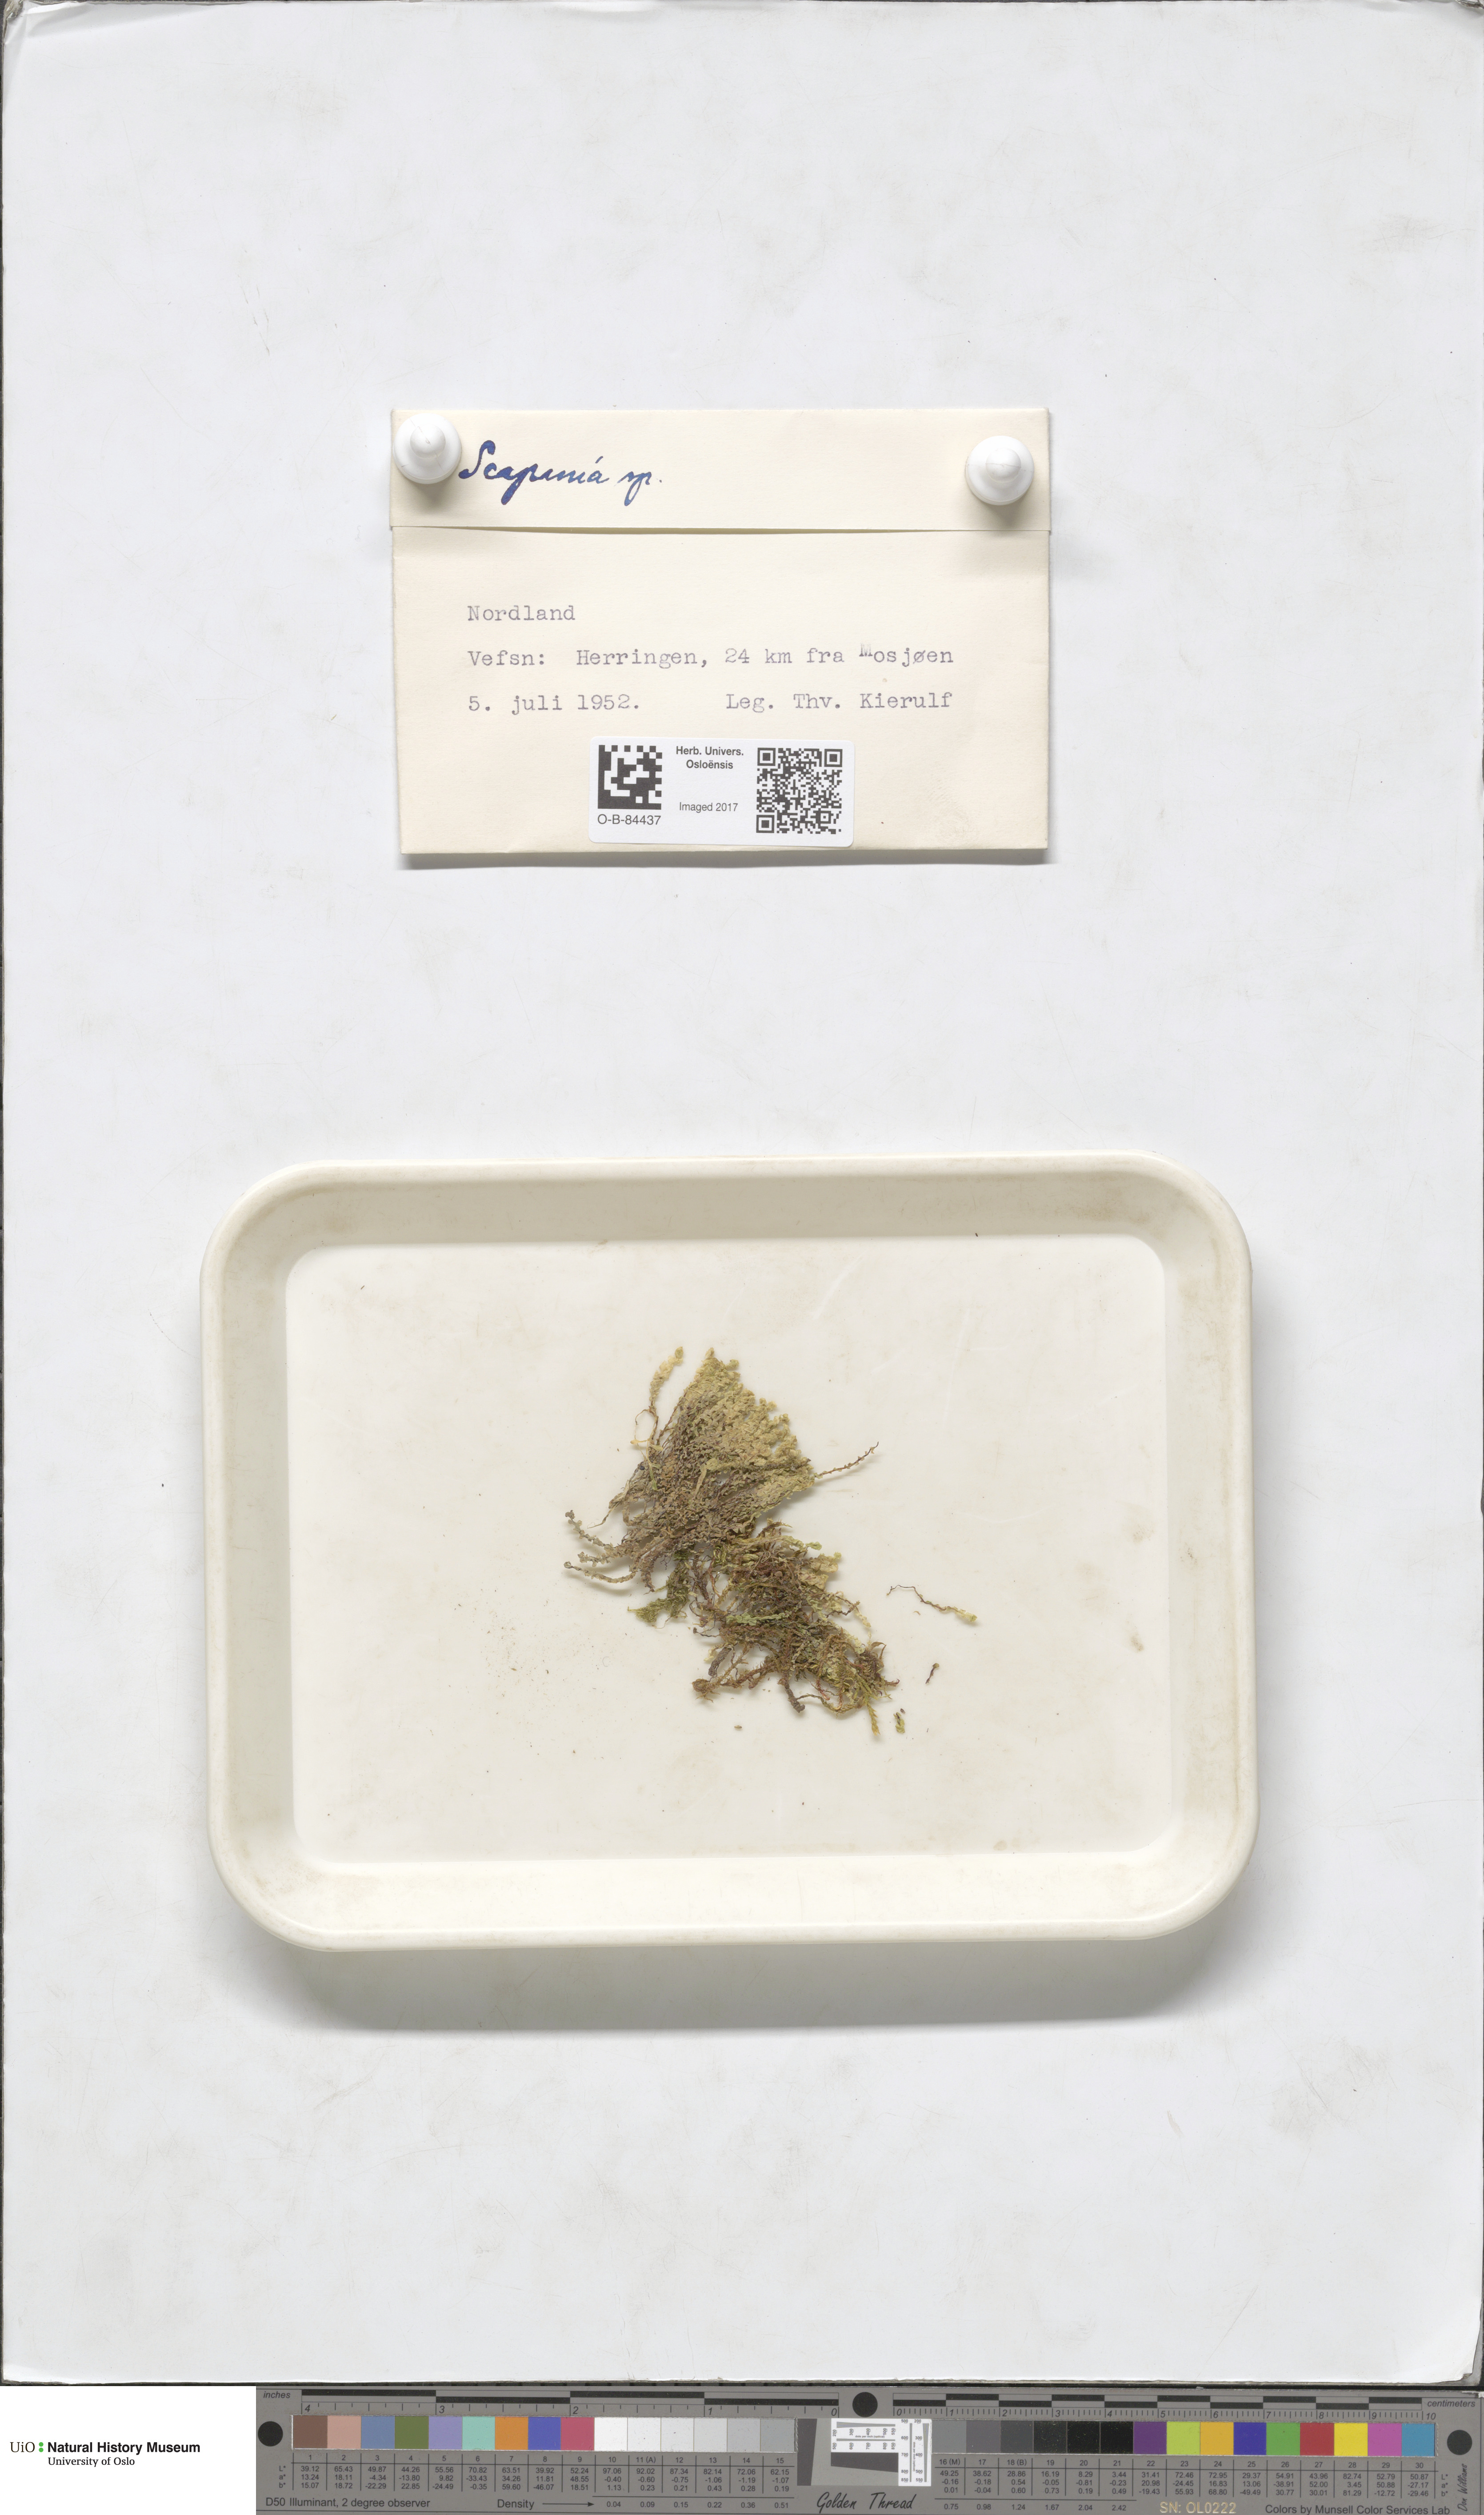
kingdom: Plantae
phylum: Marchantiophyta
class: Jungermanniopsida
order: Jungermanniales
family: Scapaniaceae
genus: Scapania
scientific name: Scapania
